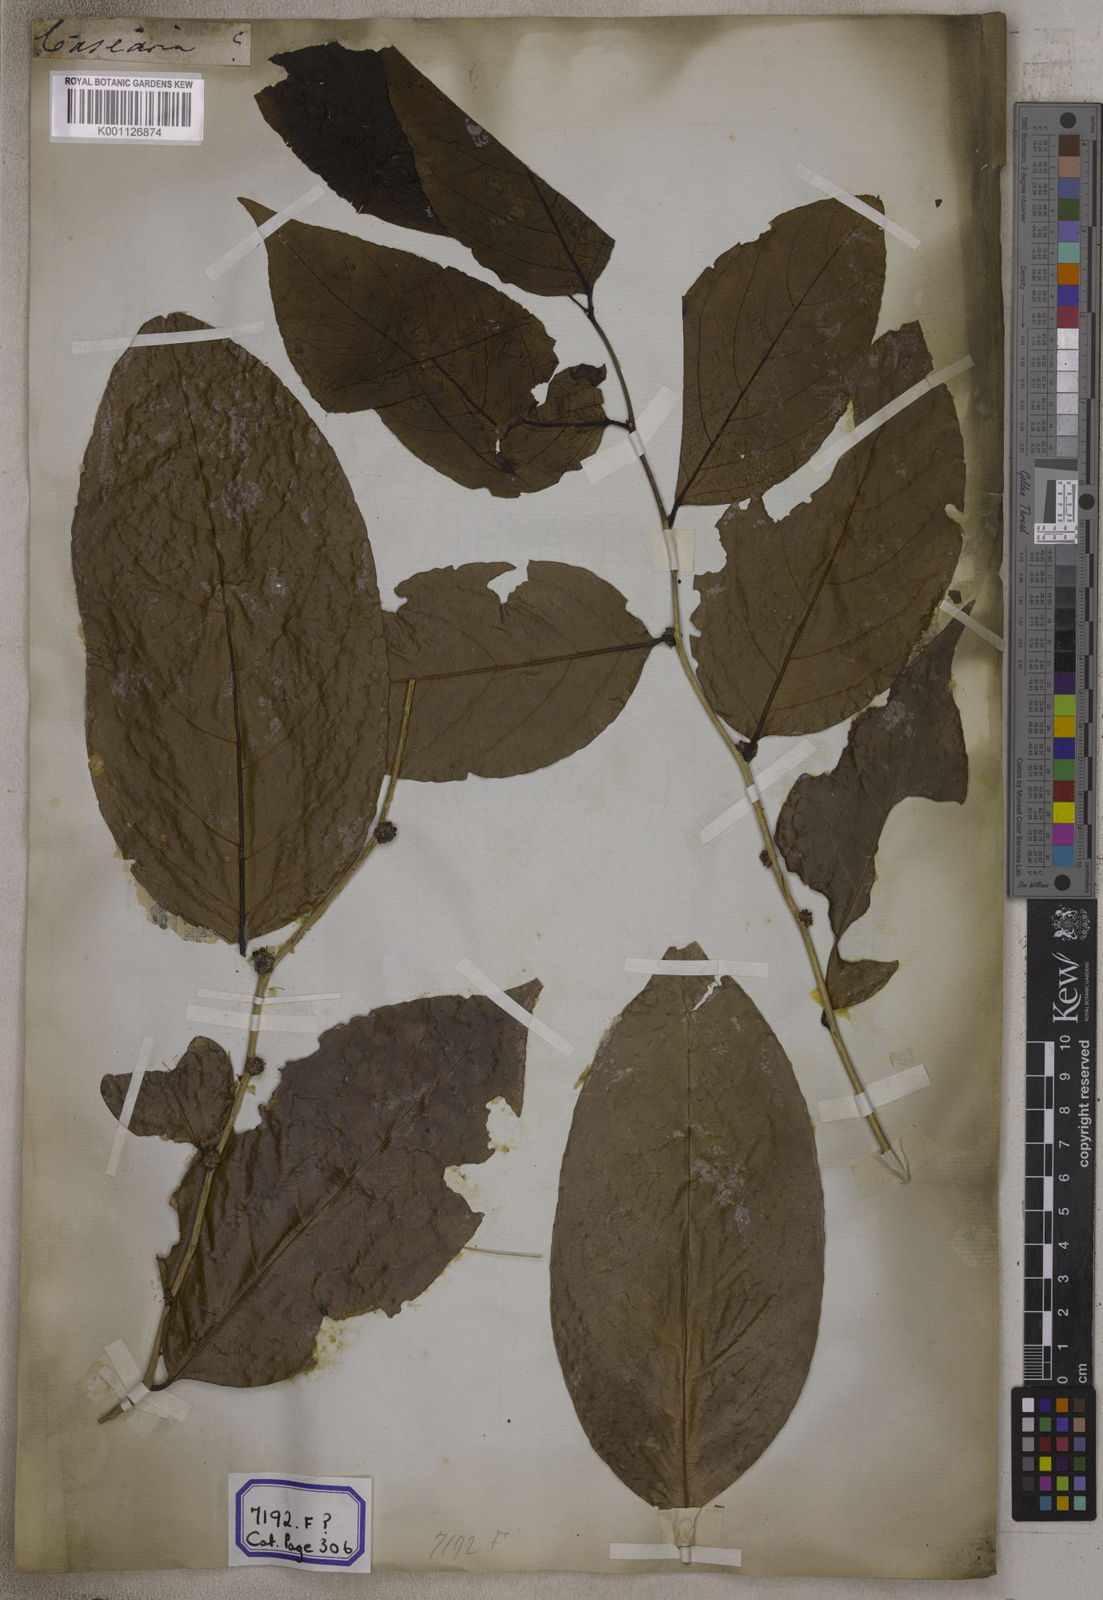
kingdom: Plantae
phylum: Tracheophyta
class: Magnoliopsida
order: Malpighiales
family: Salicaceae
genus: Casearia
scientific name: Casearia
